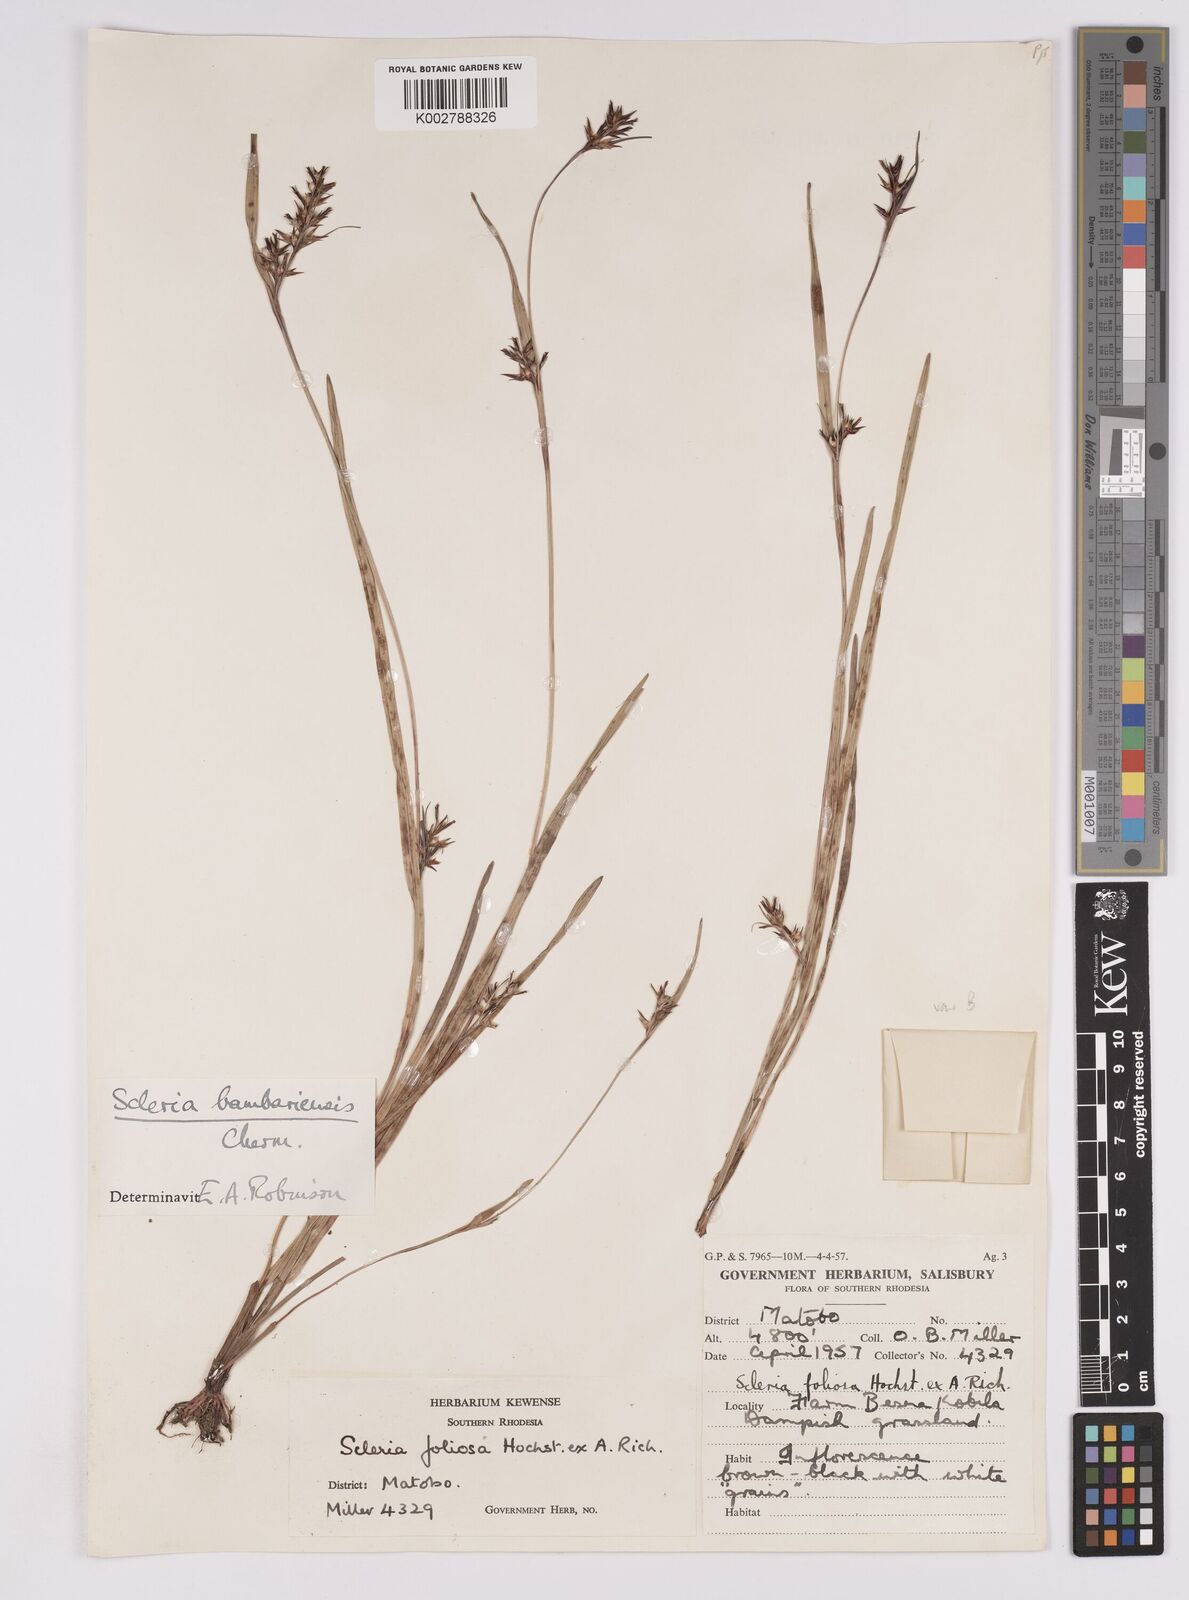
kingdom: Plantae
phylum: Tracheophyta
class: Liliopsida
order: Poales
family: Cyperaceae
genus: Scleria
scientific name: Scleria bambariensis
